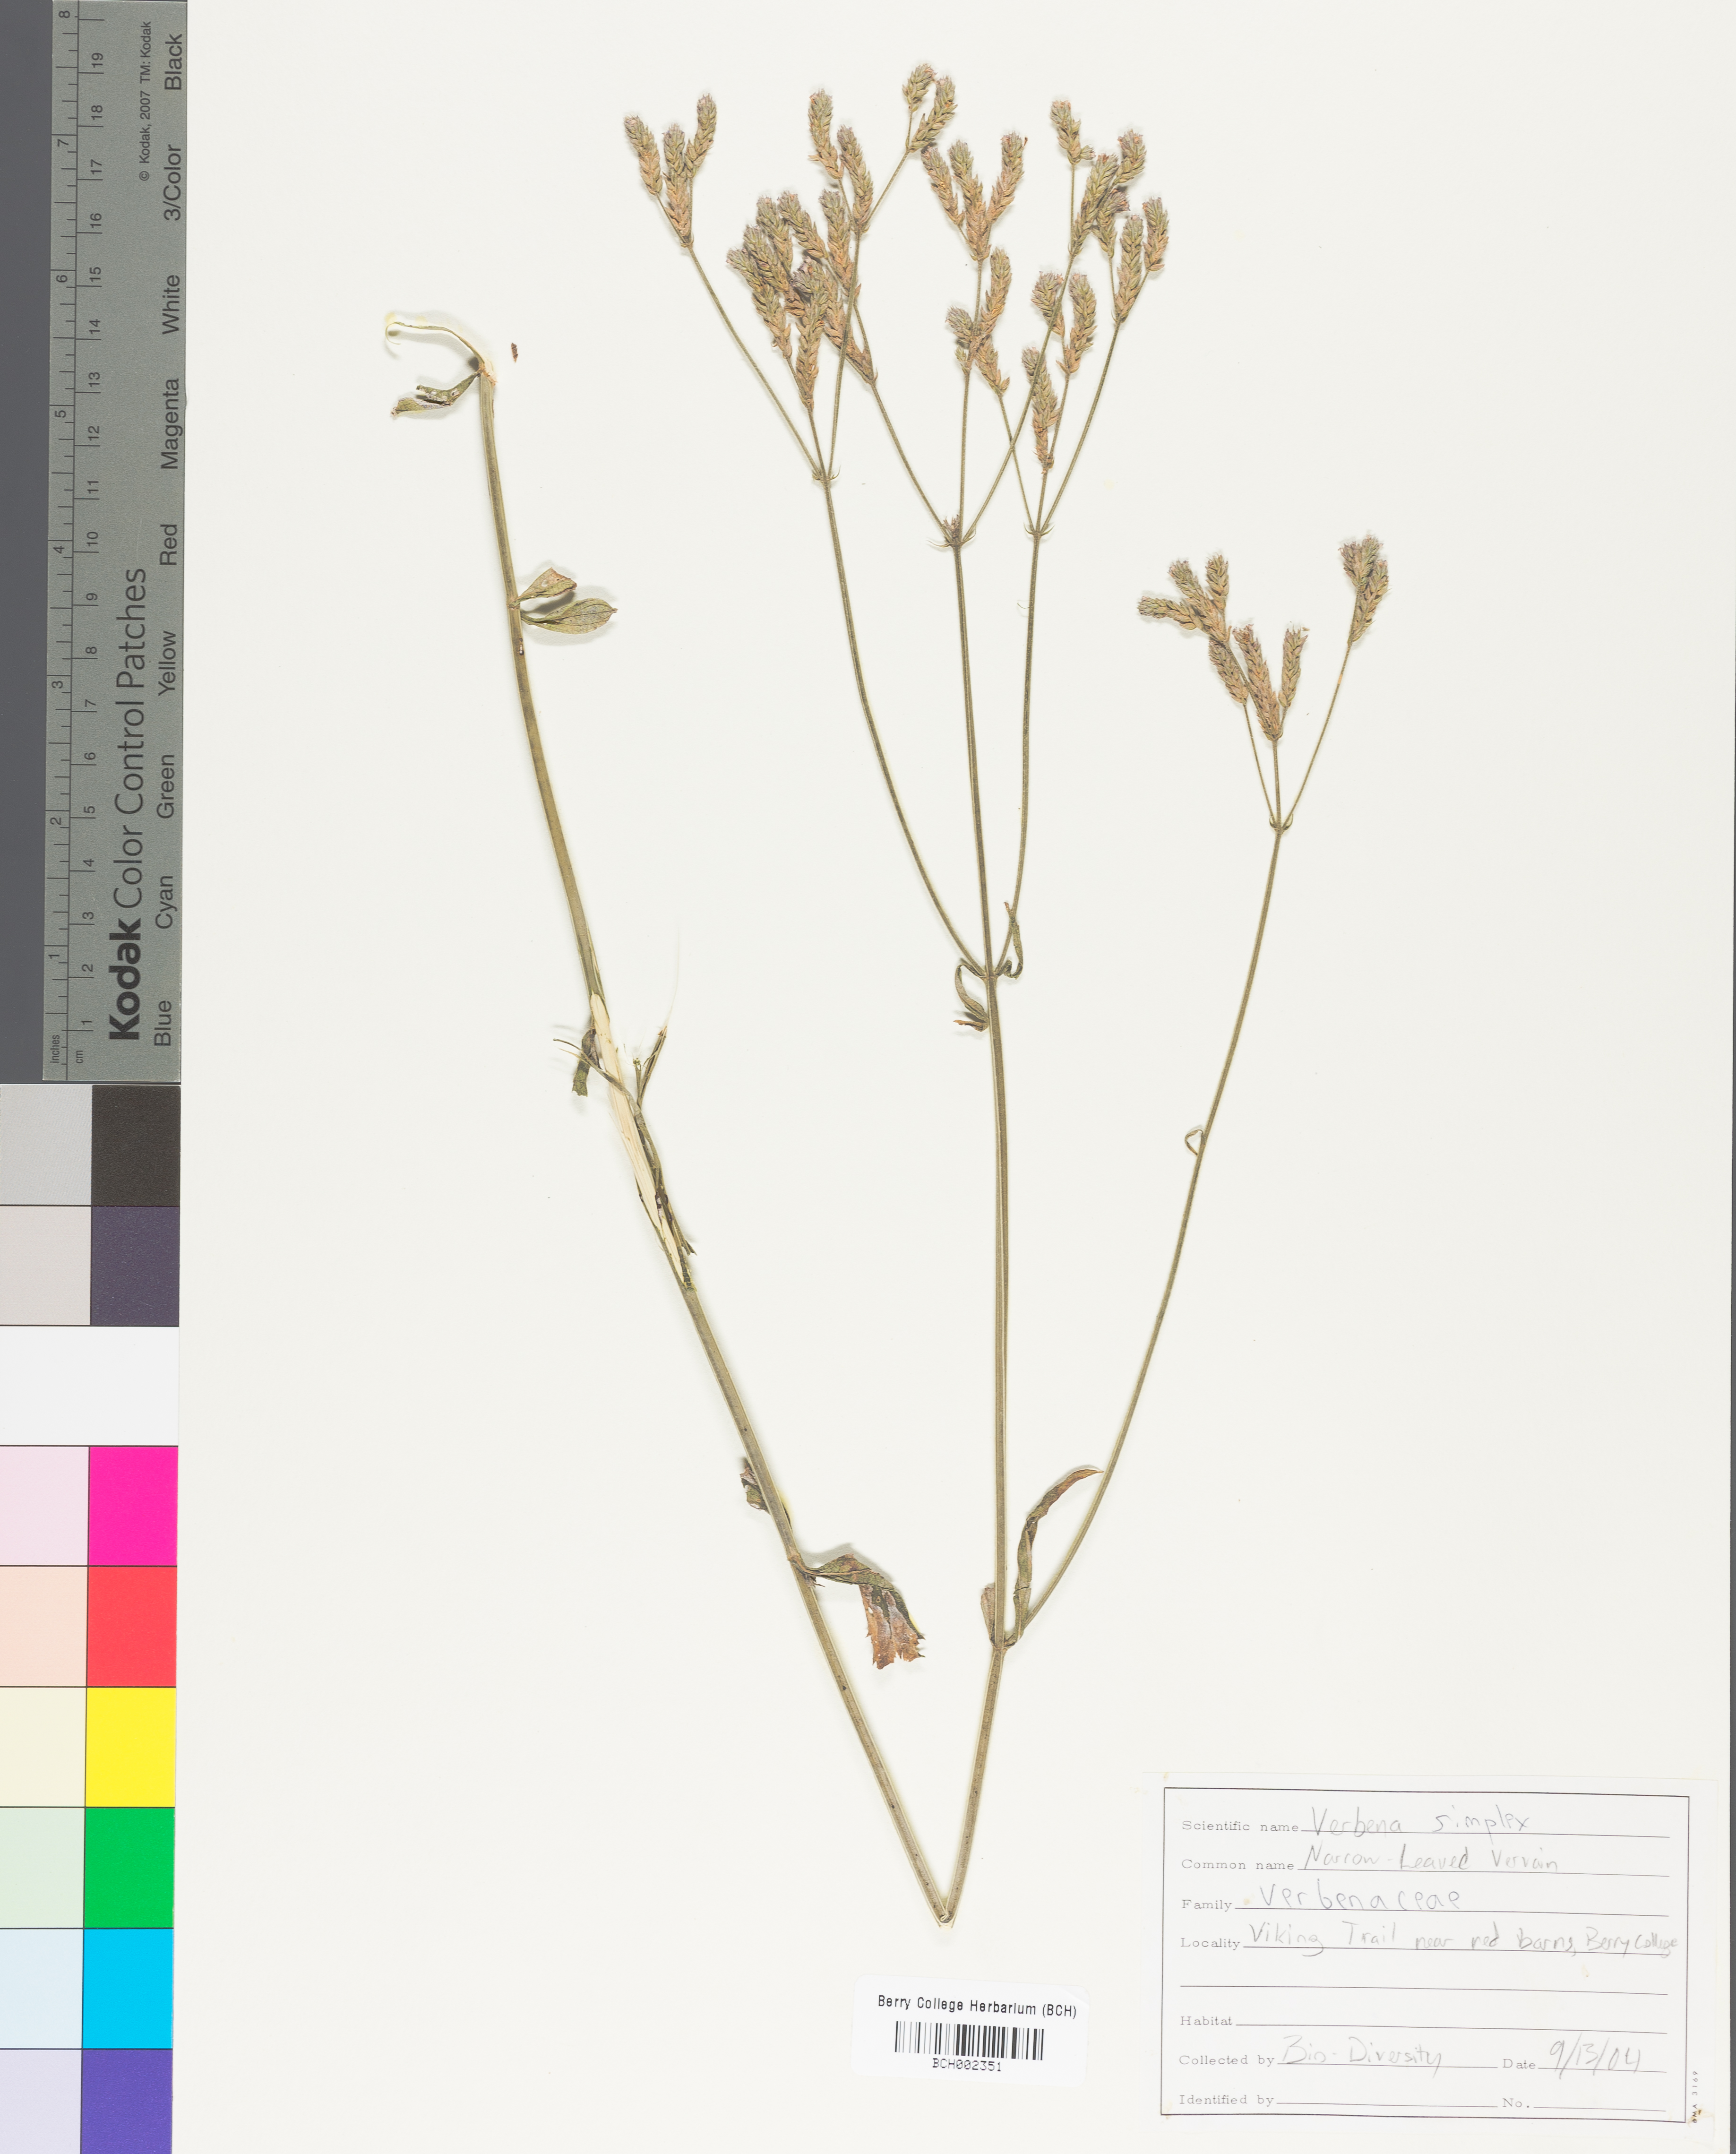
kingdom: Plantae
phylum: Tracheophyta
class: Magnoliopsida
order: Lamiales
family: Verbenaceae
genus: Verbena
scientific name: Verbena simplex
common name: Narrow-leaf vervain
